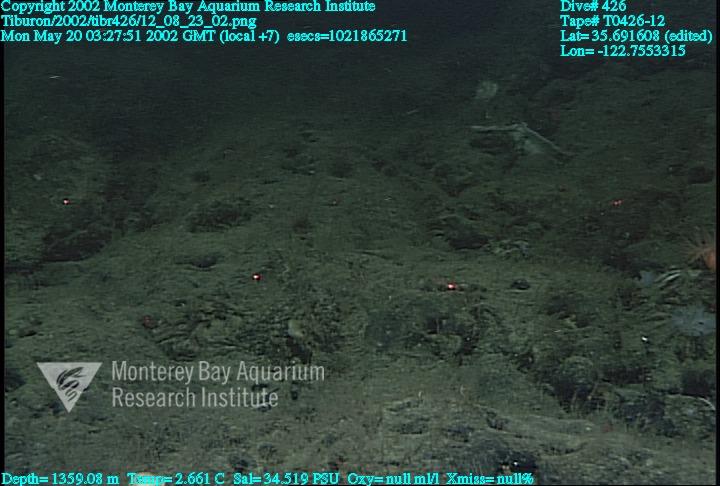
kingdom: Animalia
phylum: Porifera
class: Hexactinellida
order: Sceptrulophora
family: Farreidae
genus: Farrea
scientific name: Farrea occa
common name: Reversed glass sponge
